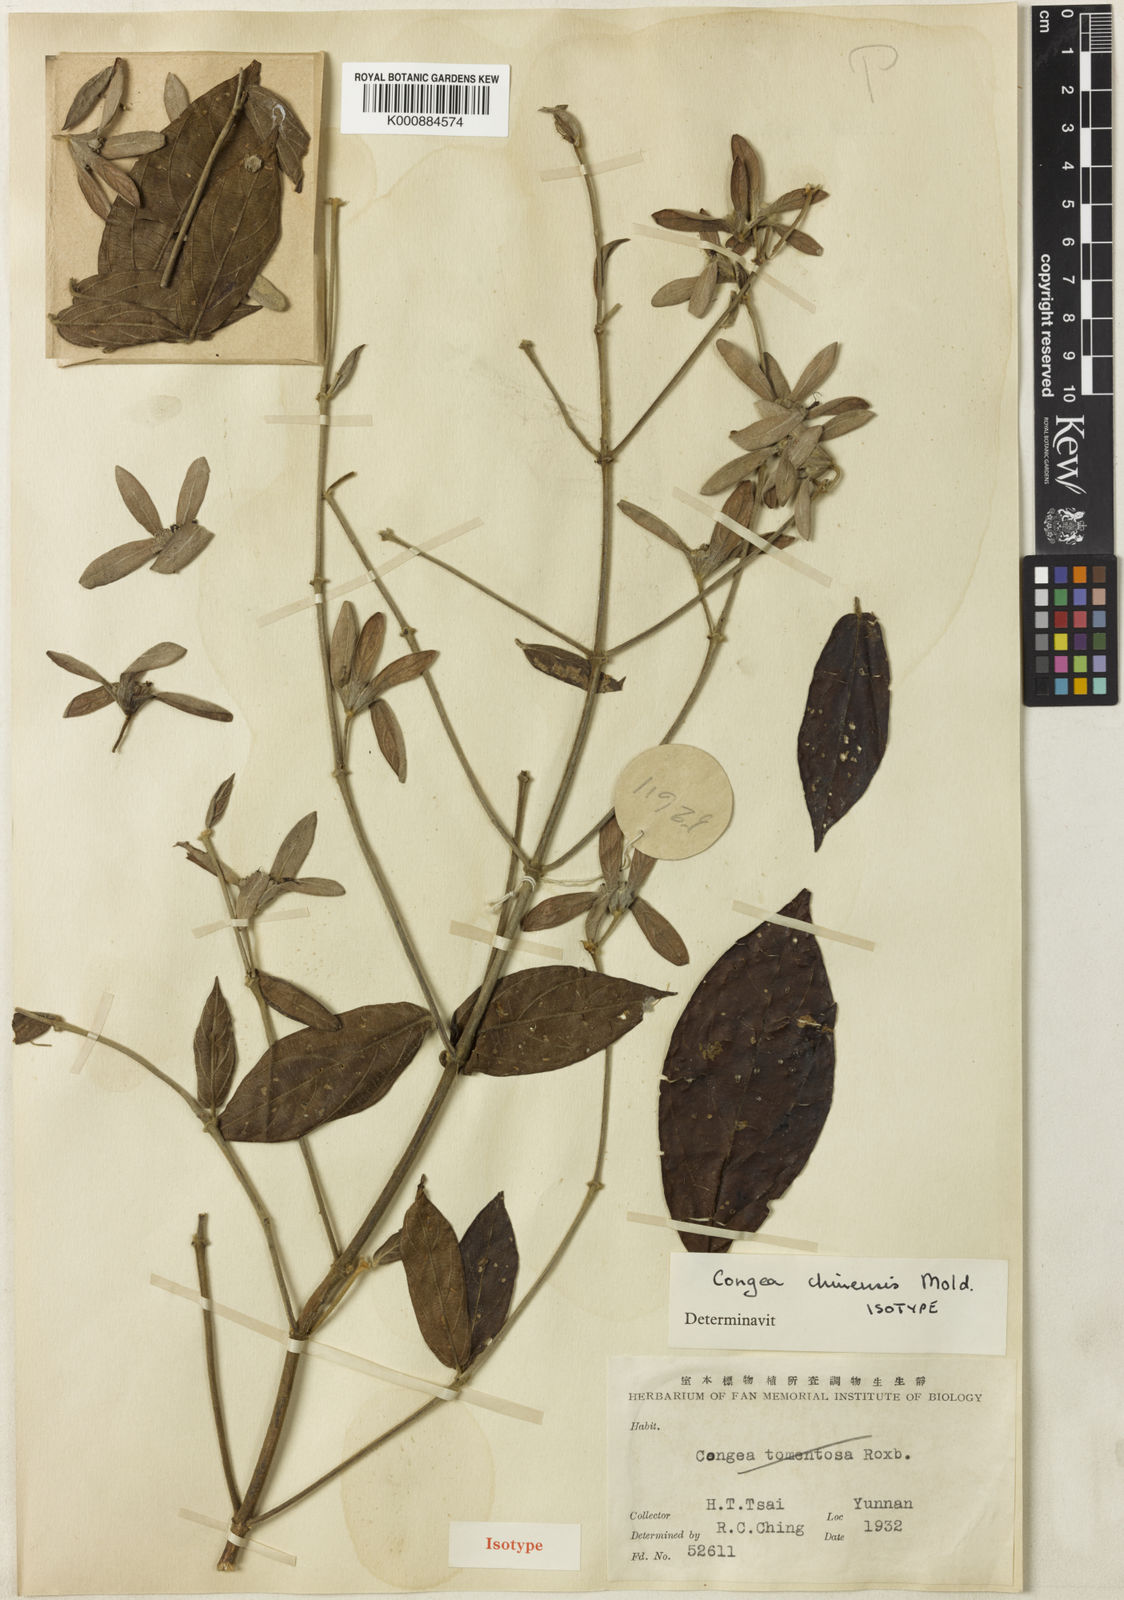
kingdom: Plantae
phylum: Tracheophyta
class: Magnoliopsida
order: Lamiales
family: Lamiaceae
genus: Congea
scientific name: Congea chinensis
